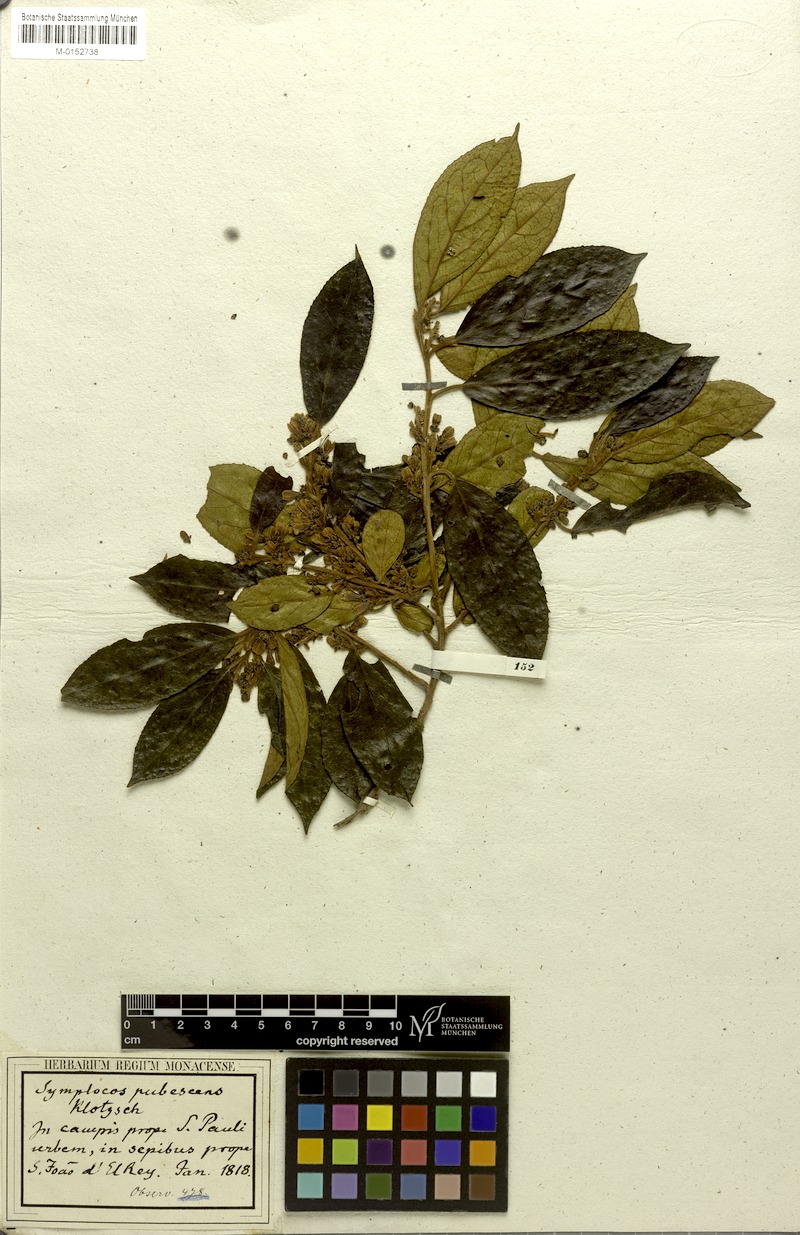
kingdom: Plantae
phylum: Tracheophyta
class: Magnoliopsida
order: Ericales
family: Symplocaceae
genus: Symplocos
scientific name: Symplocos pubescens
